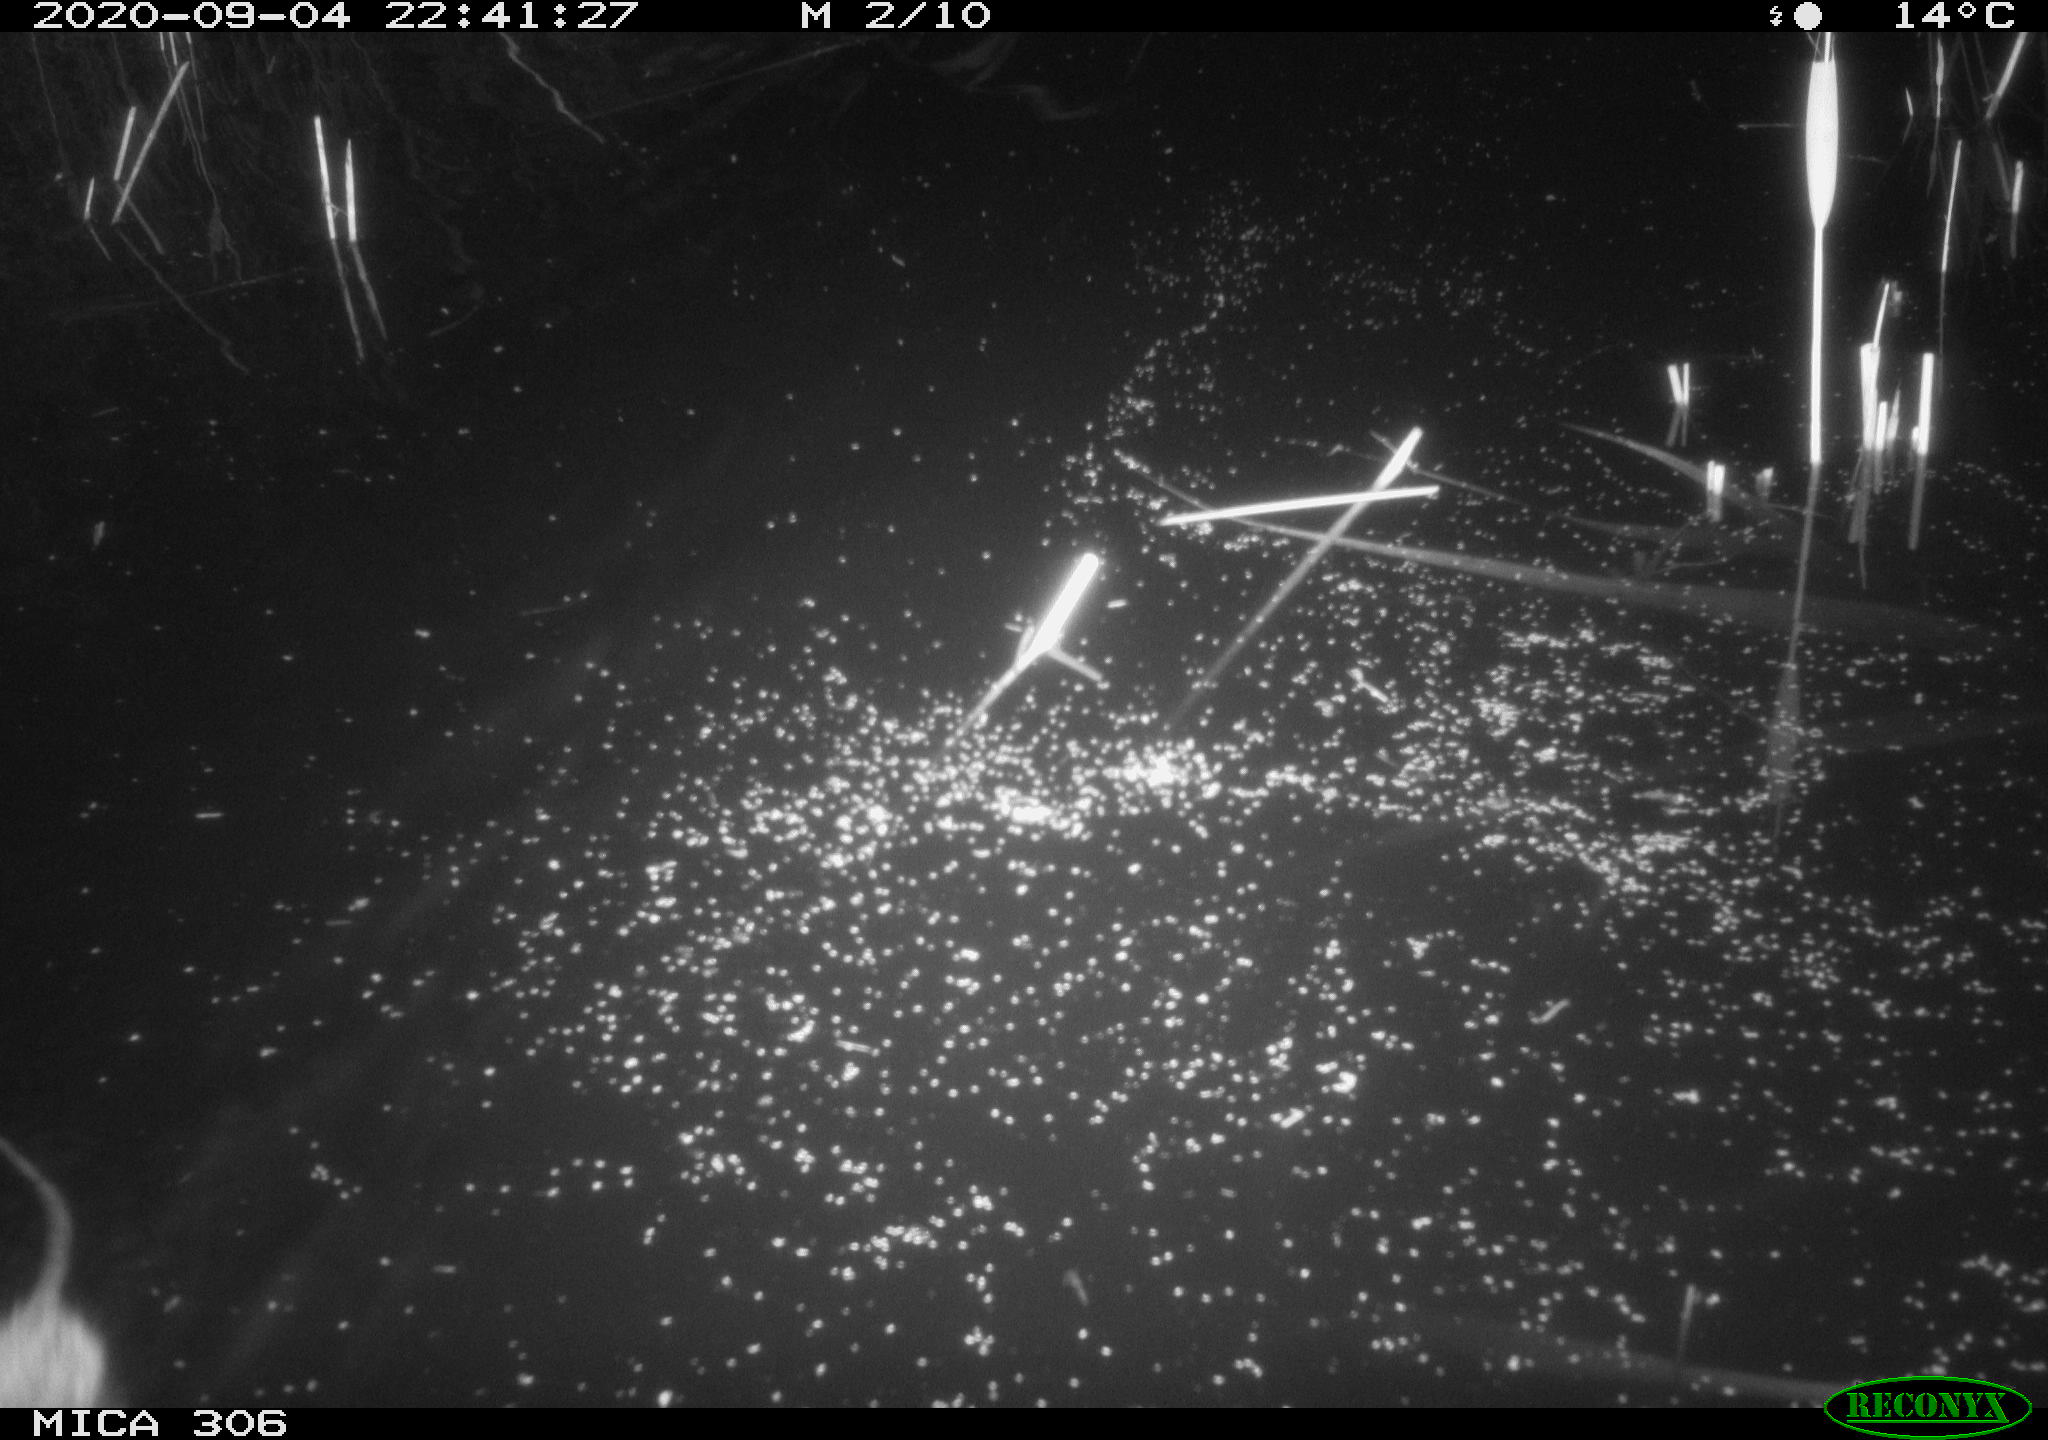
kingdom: Animalia
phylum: Chordata
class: Mammalia
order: Rodentia
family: Muridae
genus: Rattus
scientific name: Rattus norvegicus
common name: Brown rat
